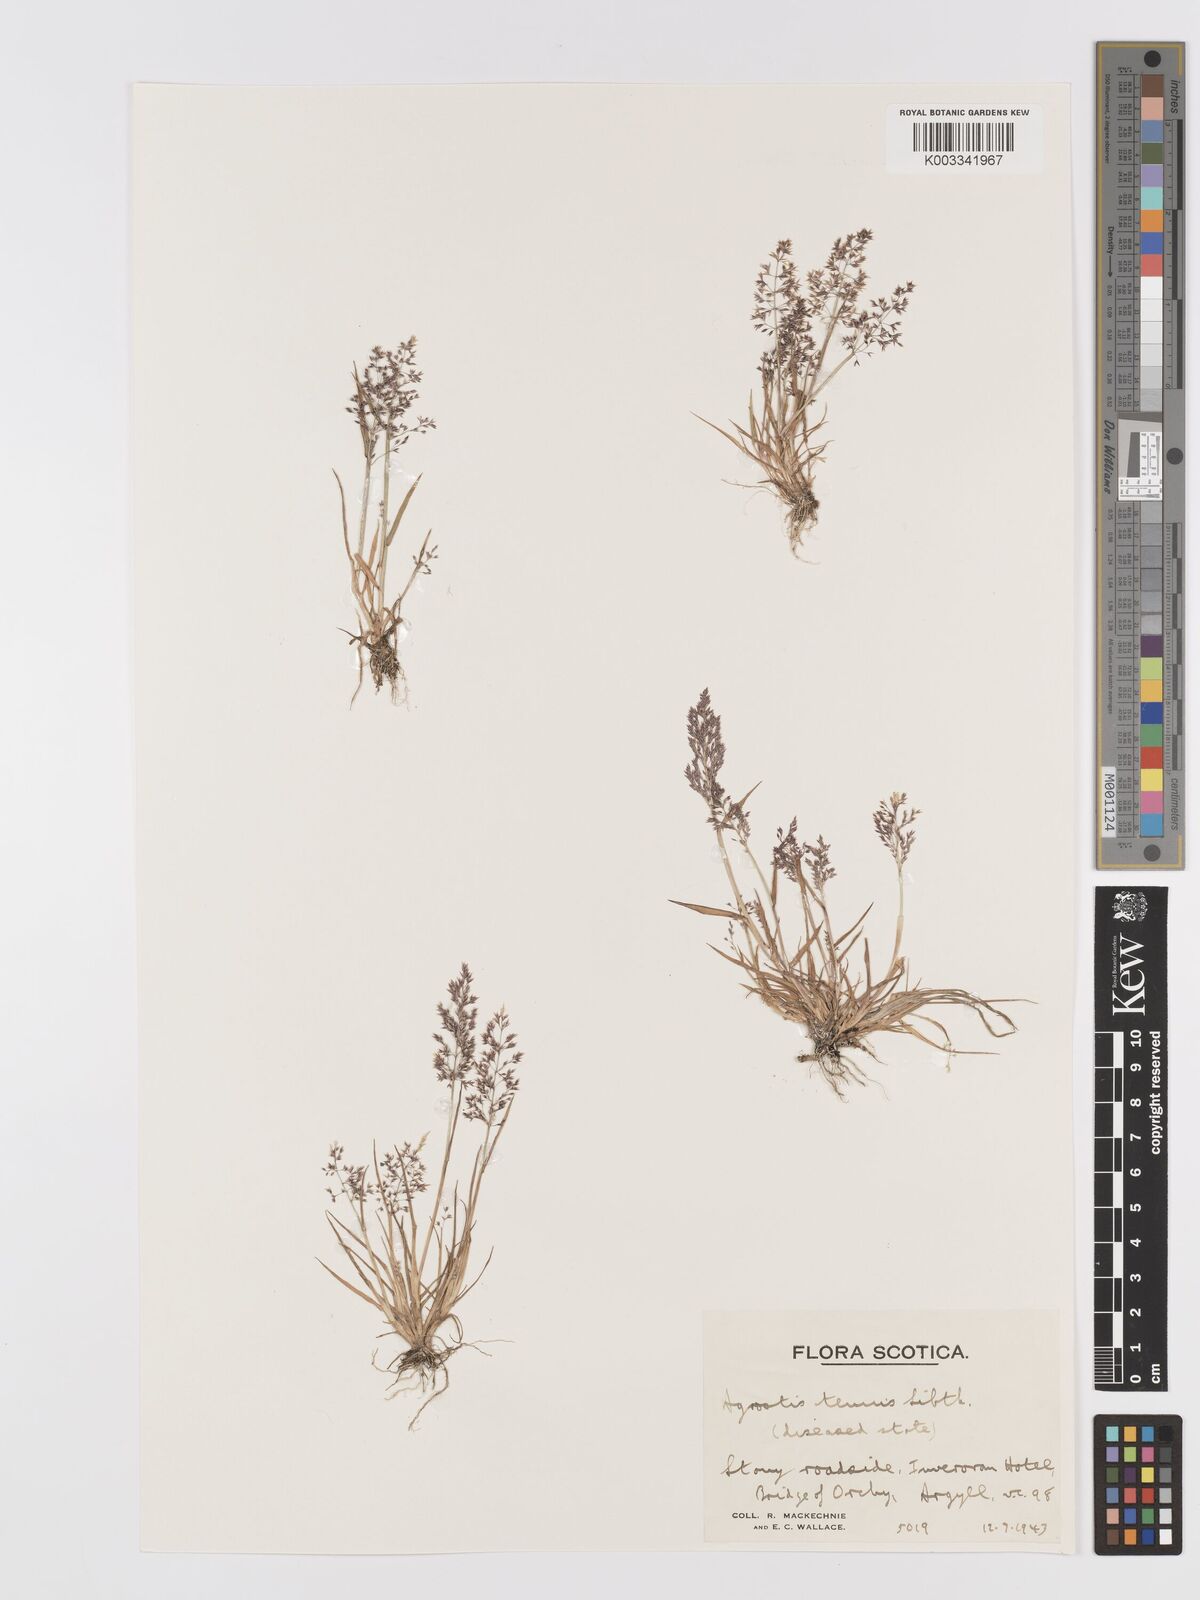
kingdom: Plantae
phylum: Tracheophyta
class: Liliopsida
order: Poales
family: Poaceae
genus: Agrostis
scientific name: Agrostis stolonifera
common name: Creeping bentgrass
